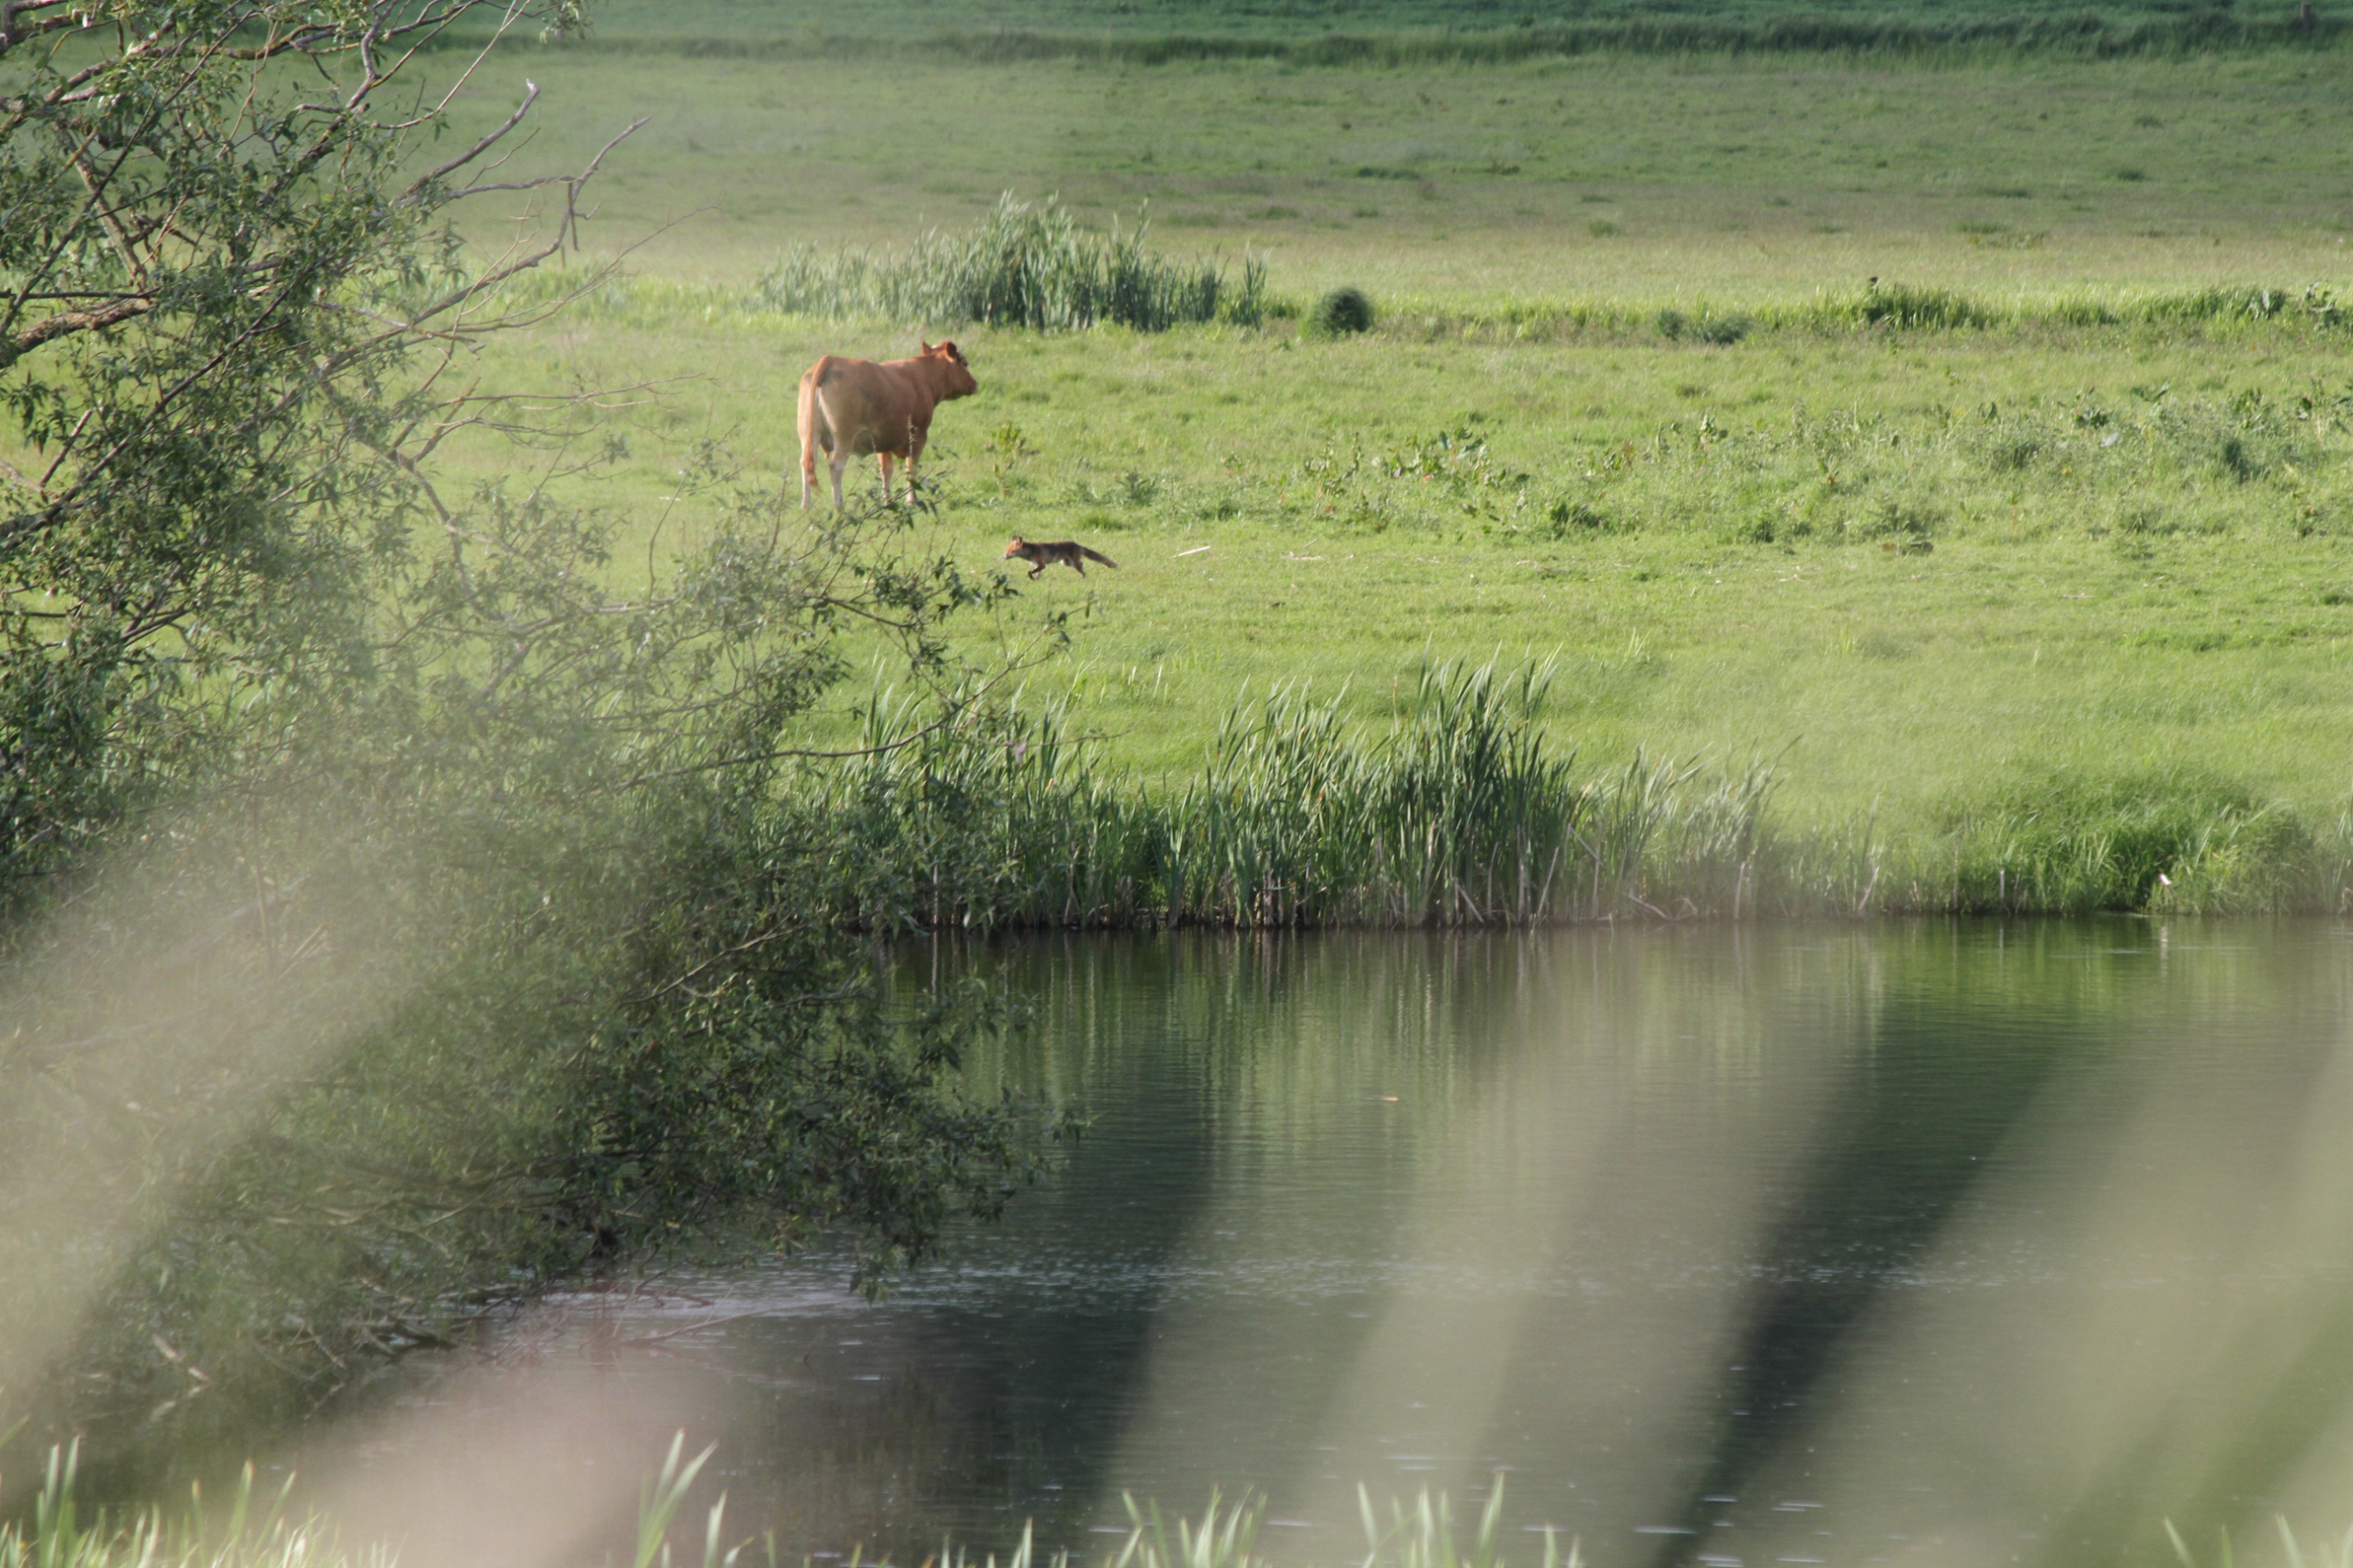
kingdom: Animalia
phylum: Chordata
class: Mammalia
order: Carnivora
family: Canidae
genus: Vulpes
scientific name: Vulpes vulpes
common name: Ræv
